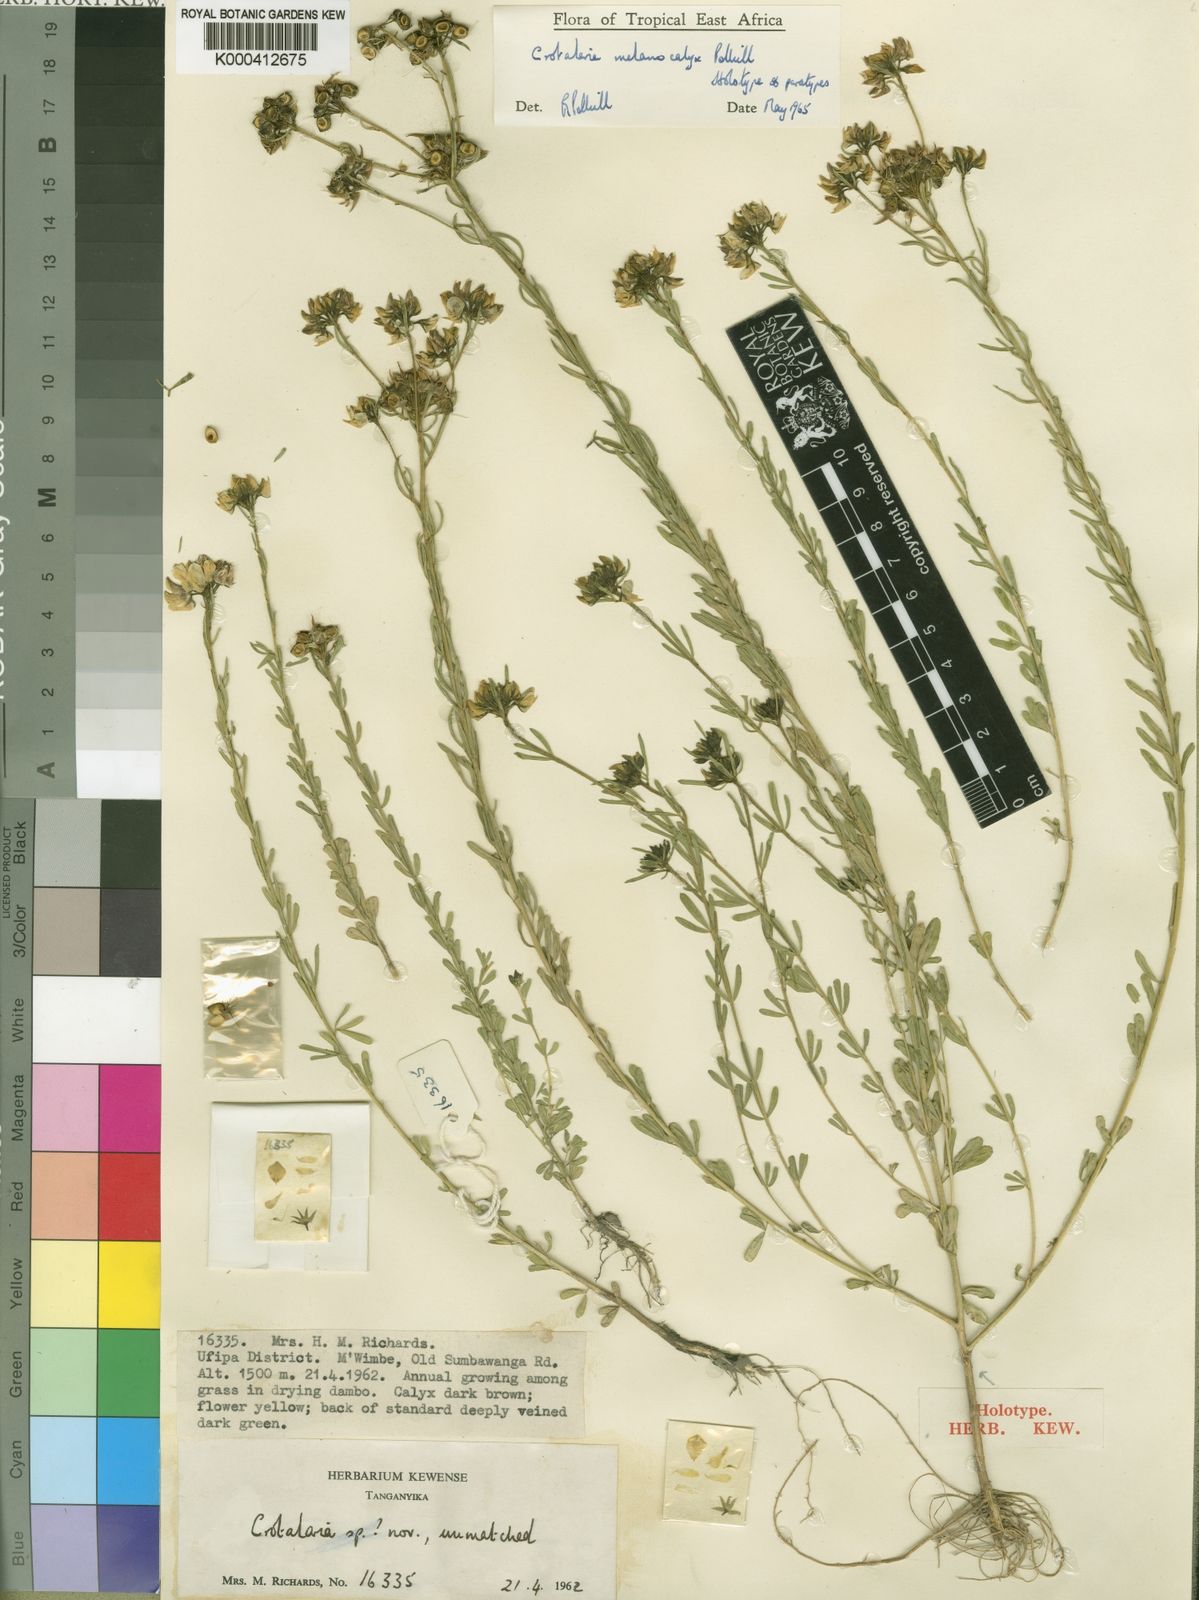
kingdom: Plantae
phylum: Tracheophyta
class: Magnoliopsida
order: Fabales
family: Fabaceae
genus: Crotalaria
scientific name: Crotalaria melanocalyx
